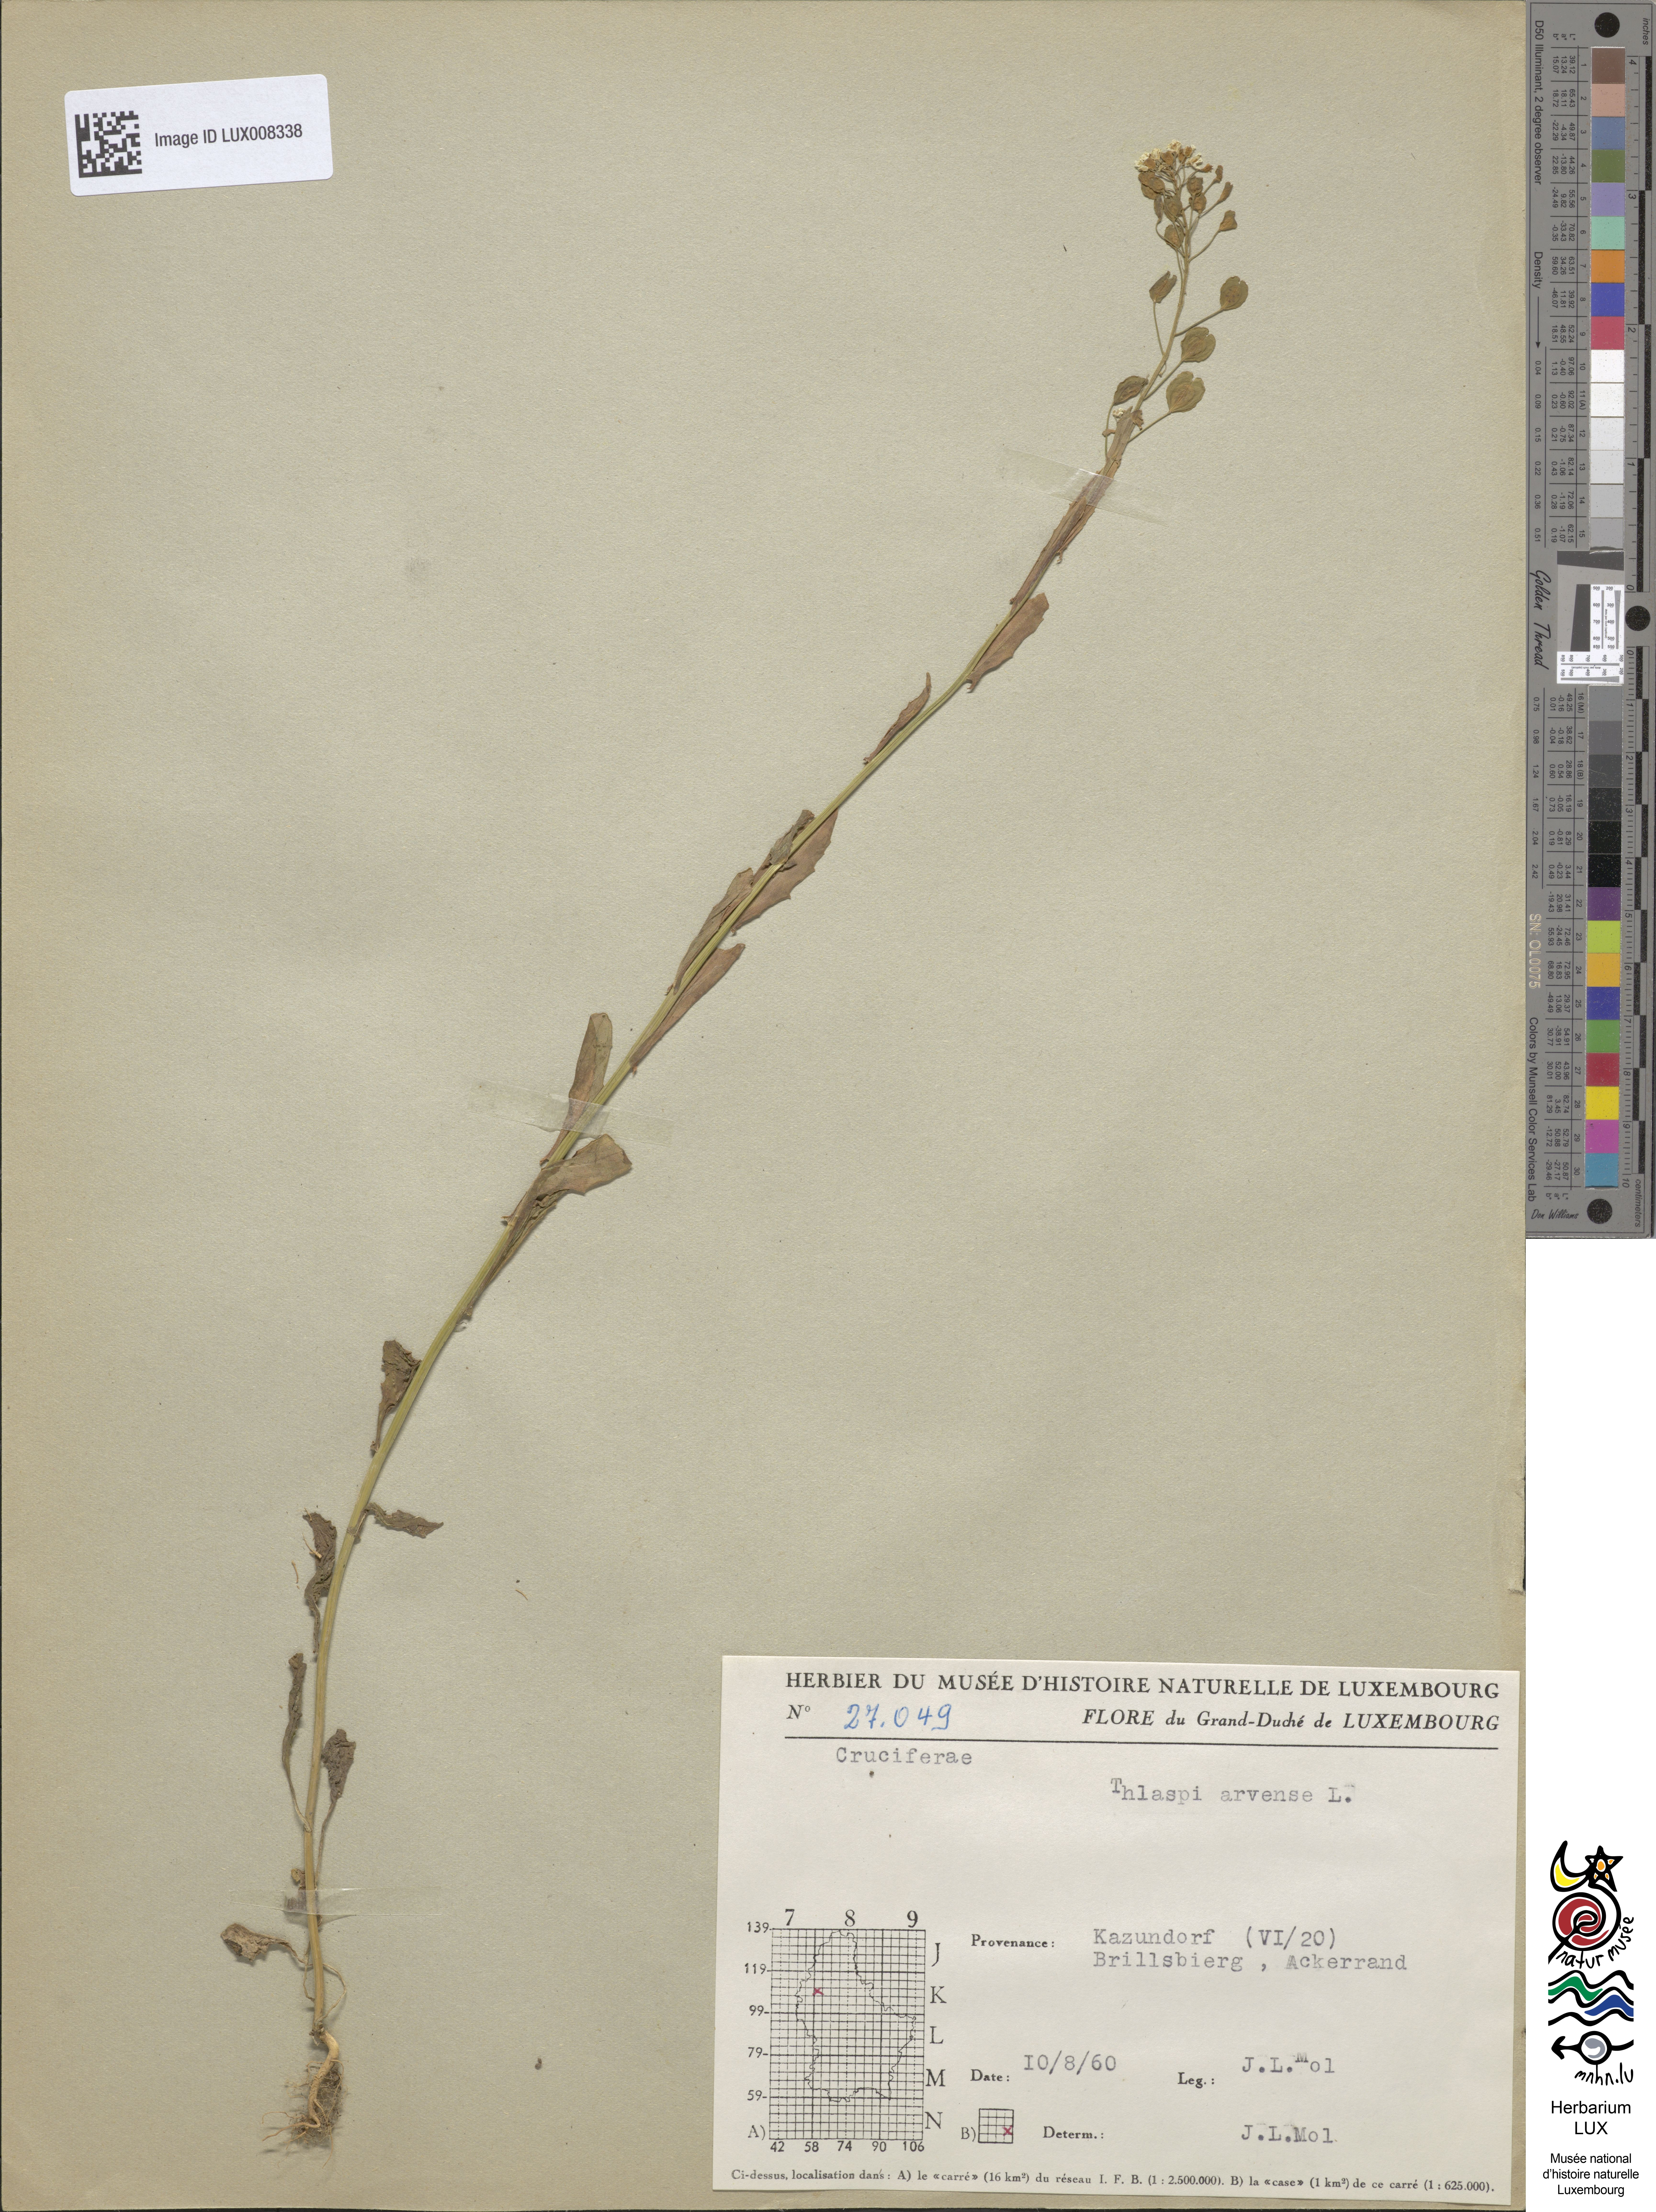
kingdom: Plantae
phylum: Tracheophyta
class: Magnoliopsida
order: Brassicales
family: Brassicaceae
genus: Thlaspi
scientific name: Thlaspi arvense
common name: Field pennycress
